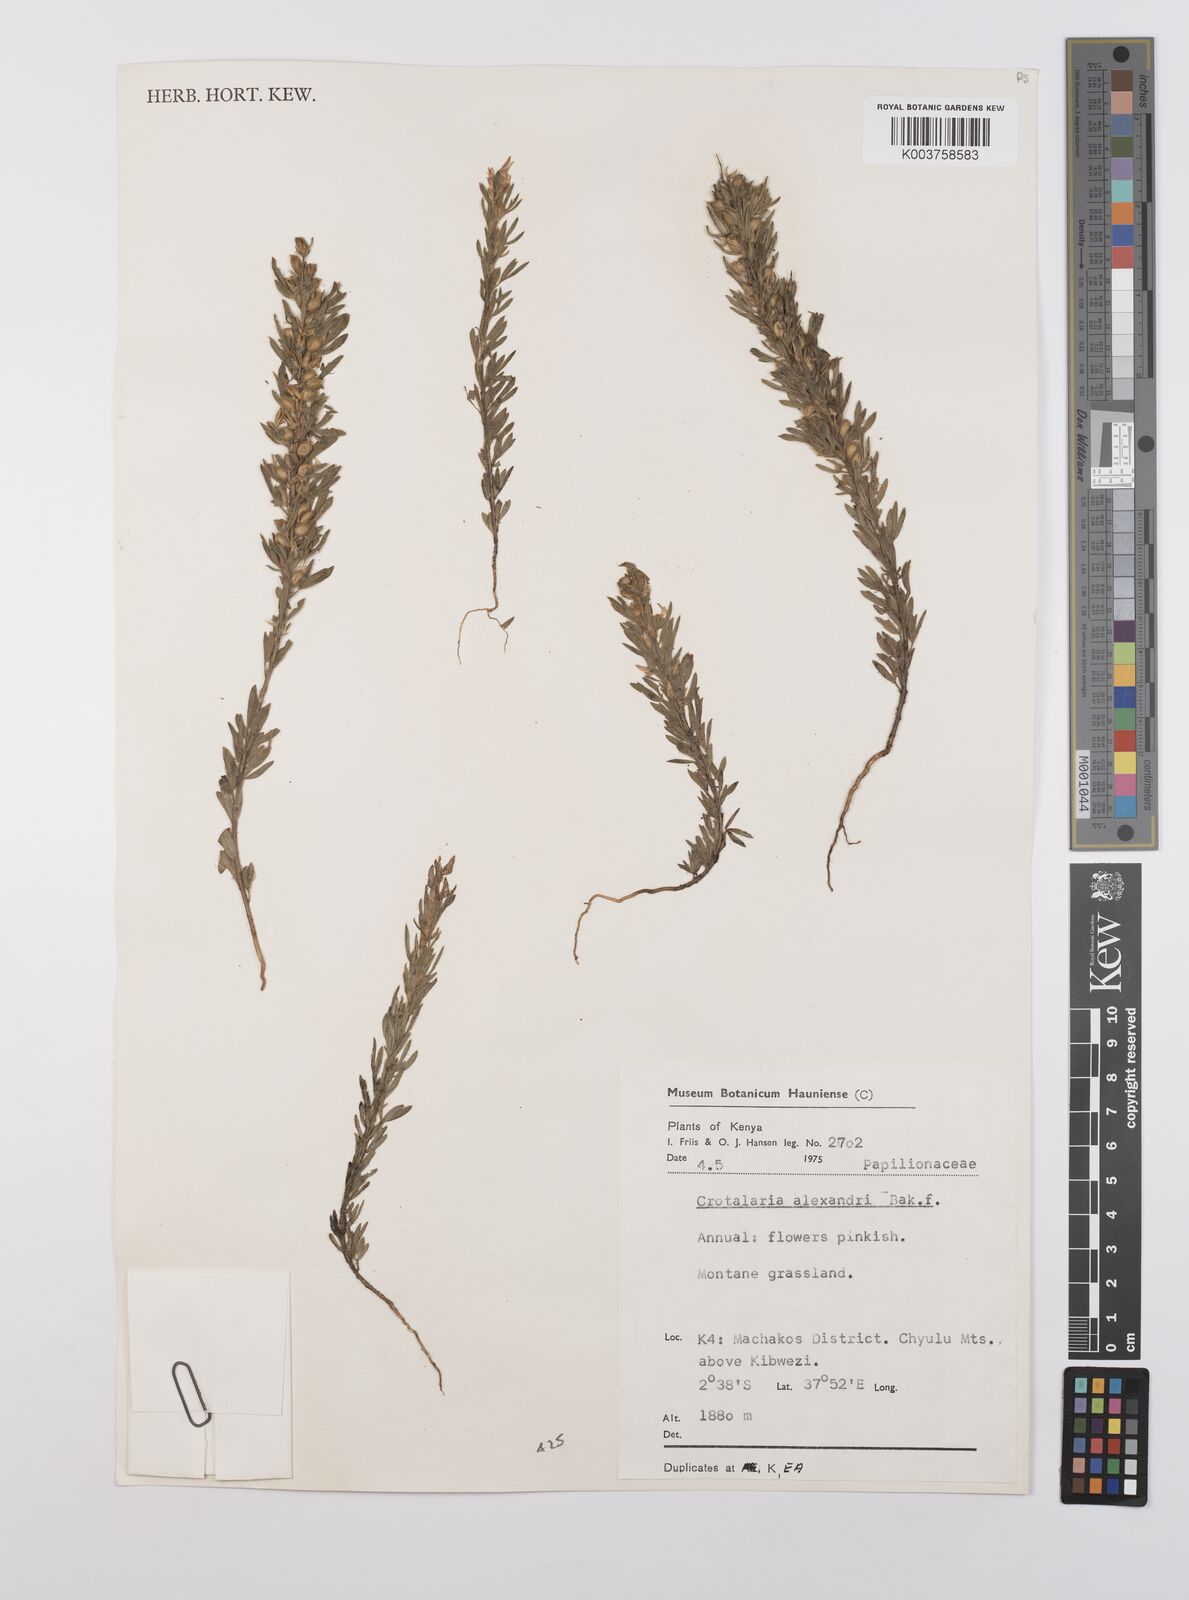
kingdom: Plantae
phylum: Tracheophyta
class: Magnoliopsida
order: Fabales
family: Fabaceae
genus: Crotalaria
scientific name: Crotalaria alexandri
